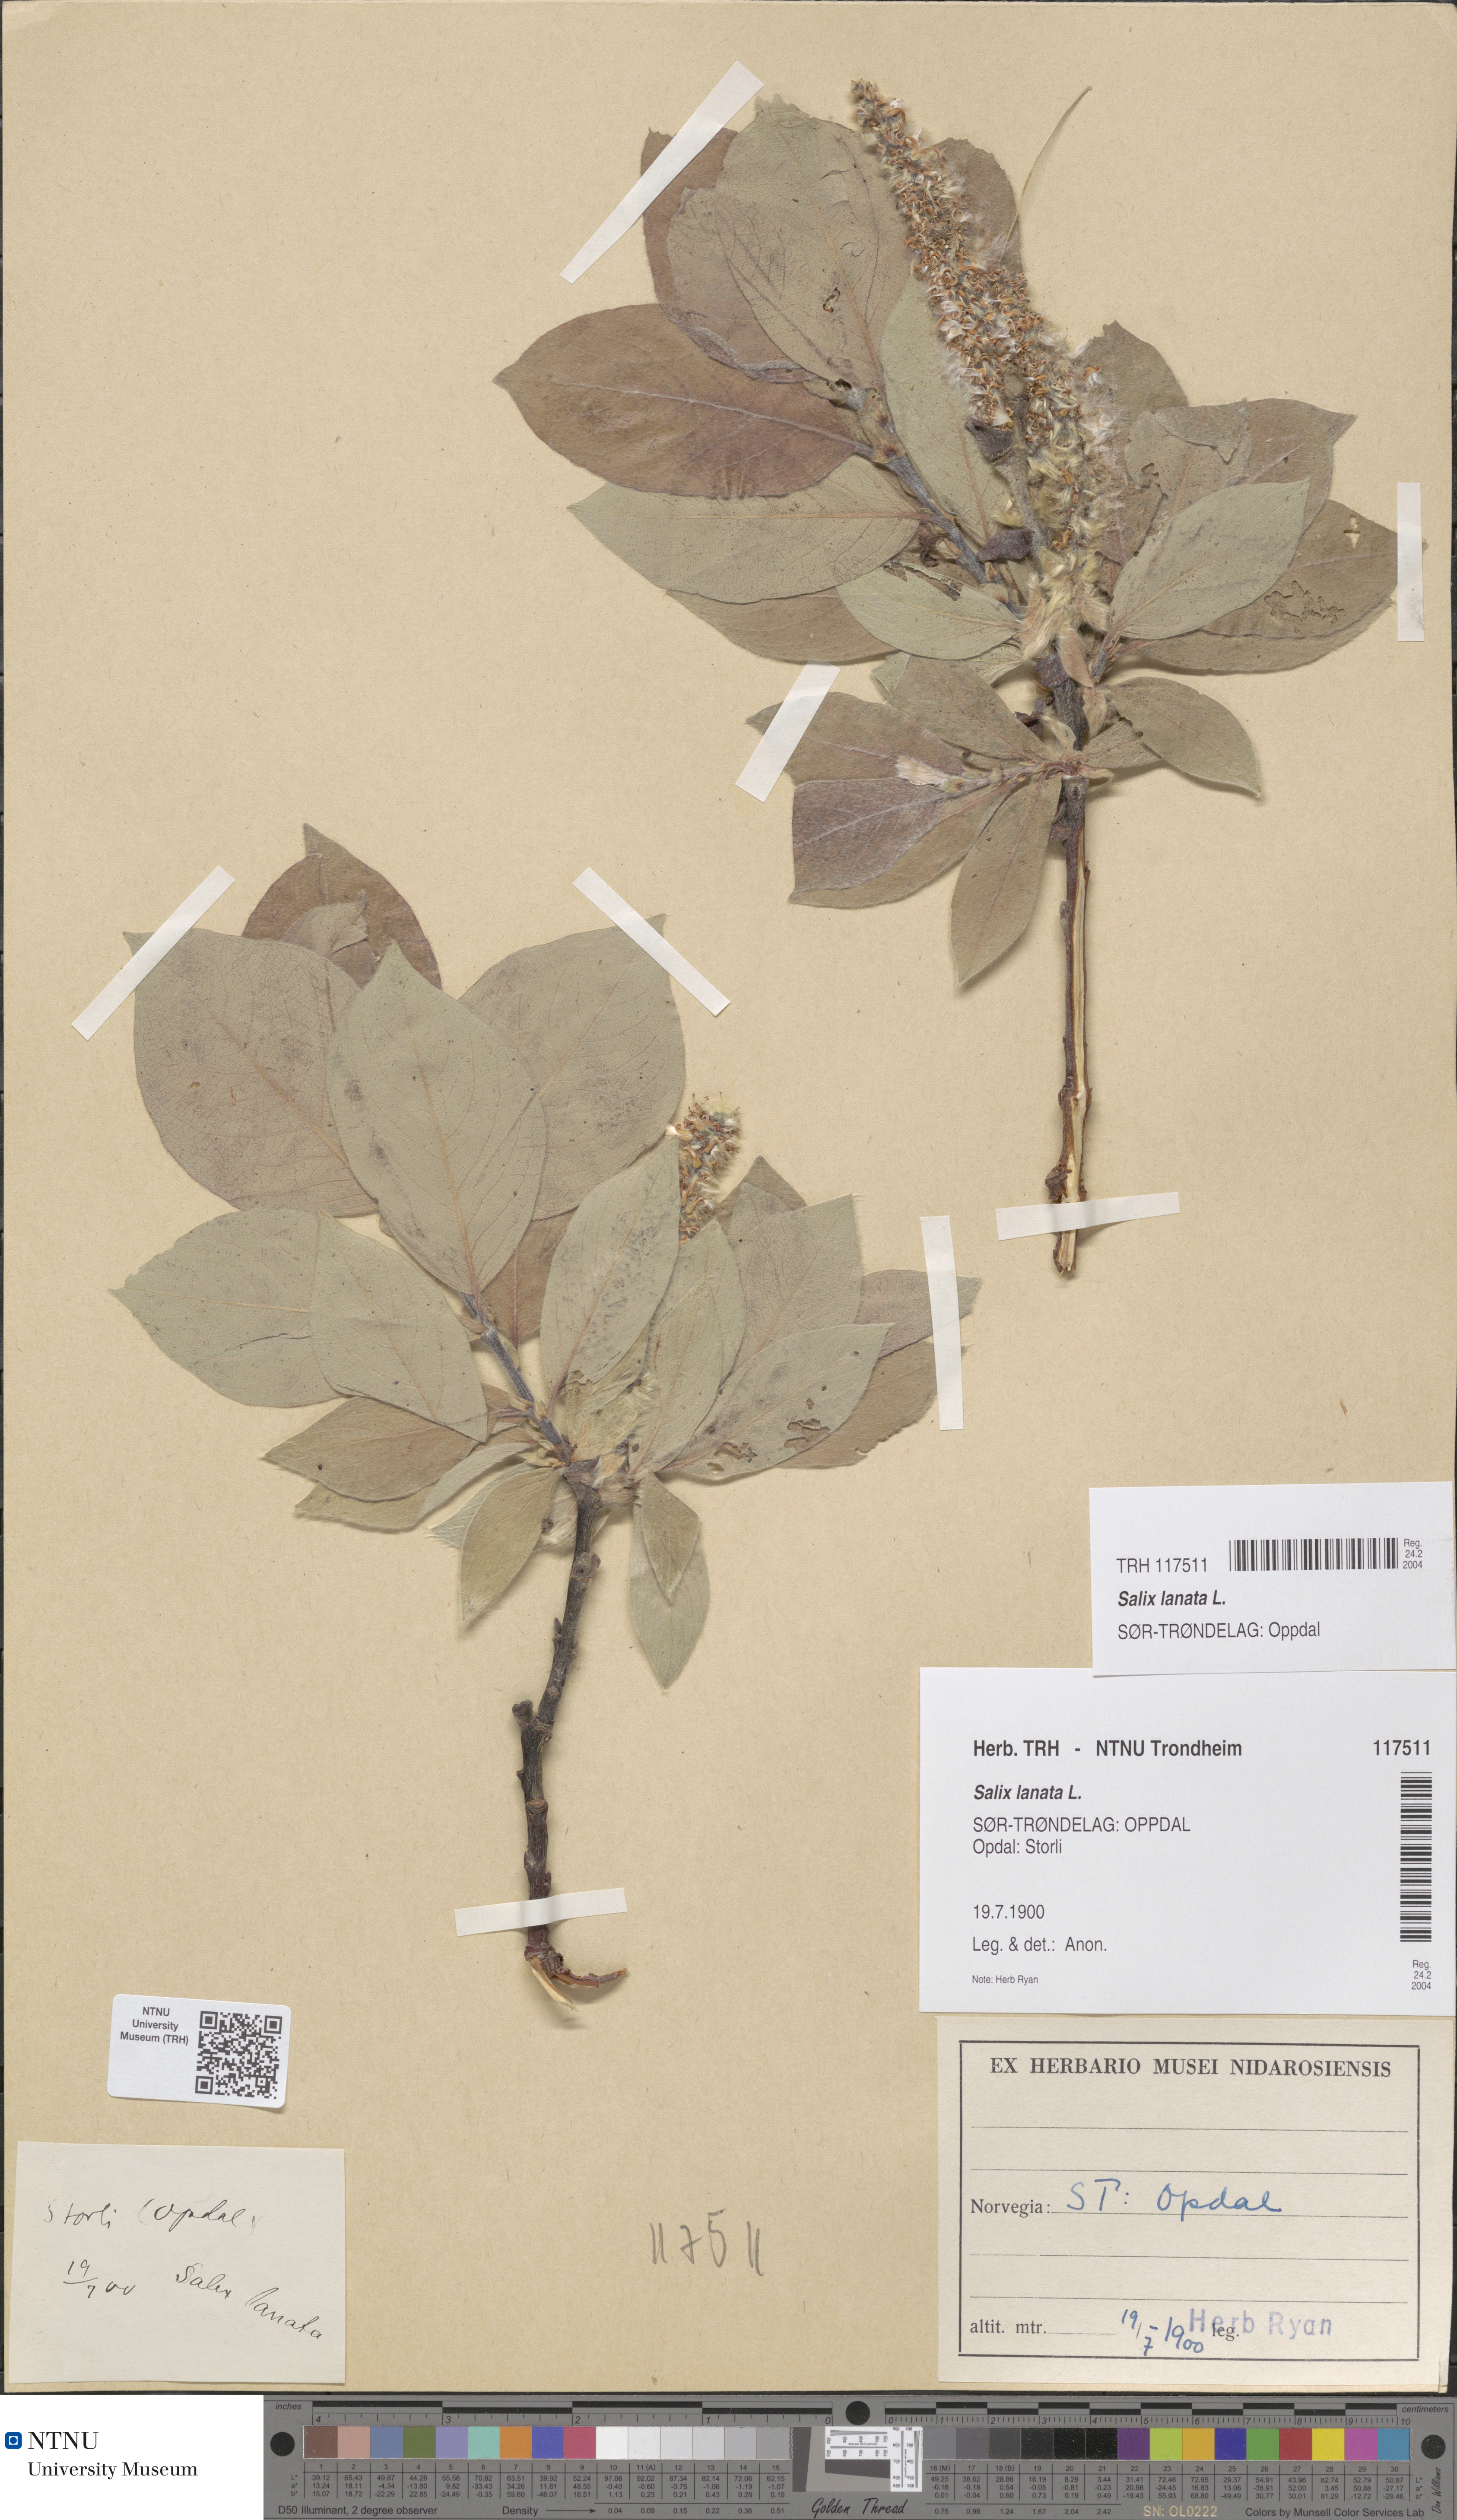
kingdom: Plantae
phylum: Tracheophyta
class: Magnoliopsida
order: Malpighiales
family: Salicaceae
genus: Salix
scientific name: Salix lanata
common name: Woolly willow
